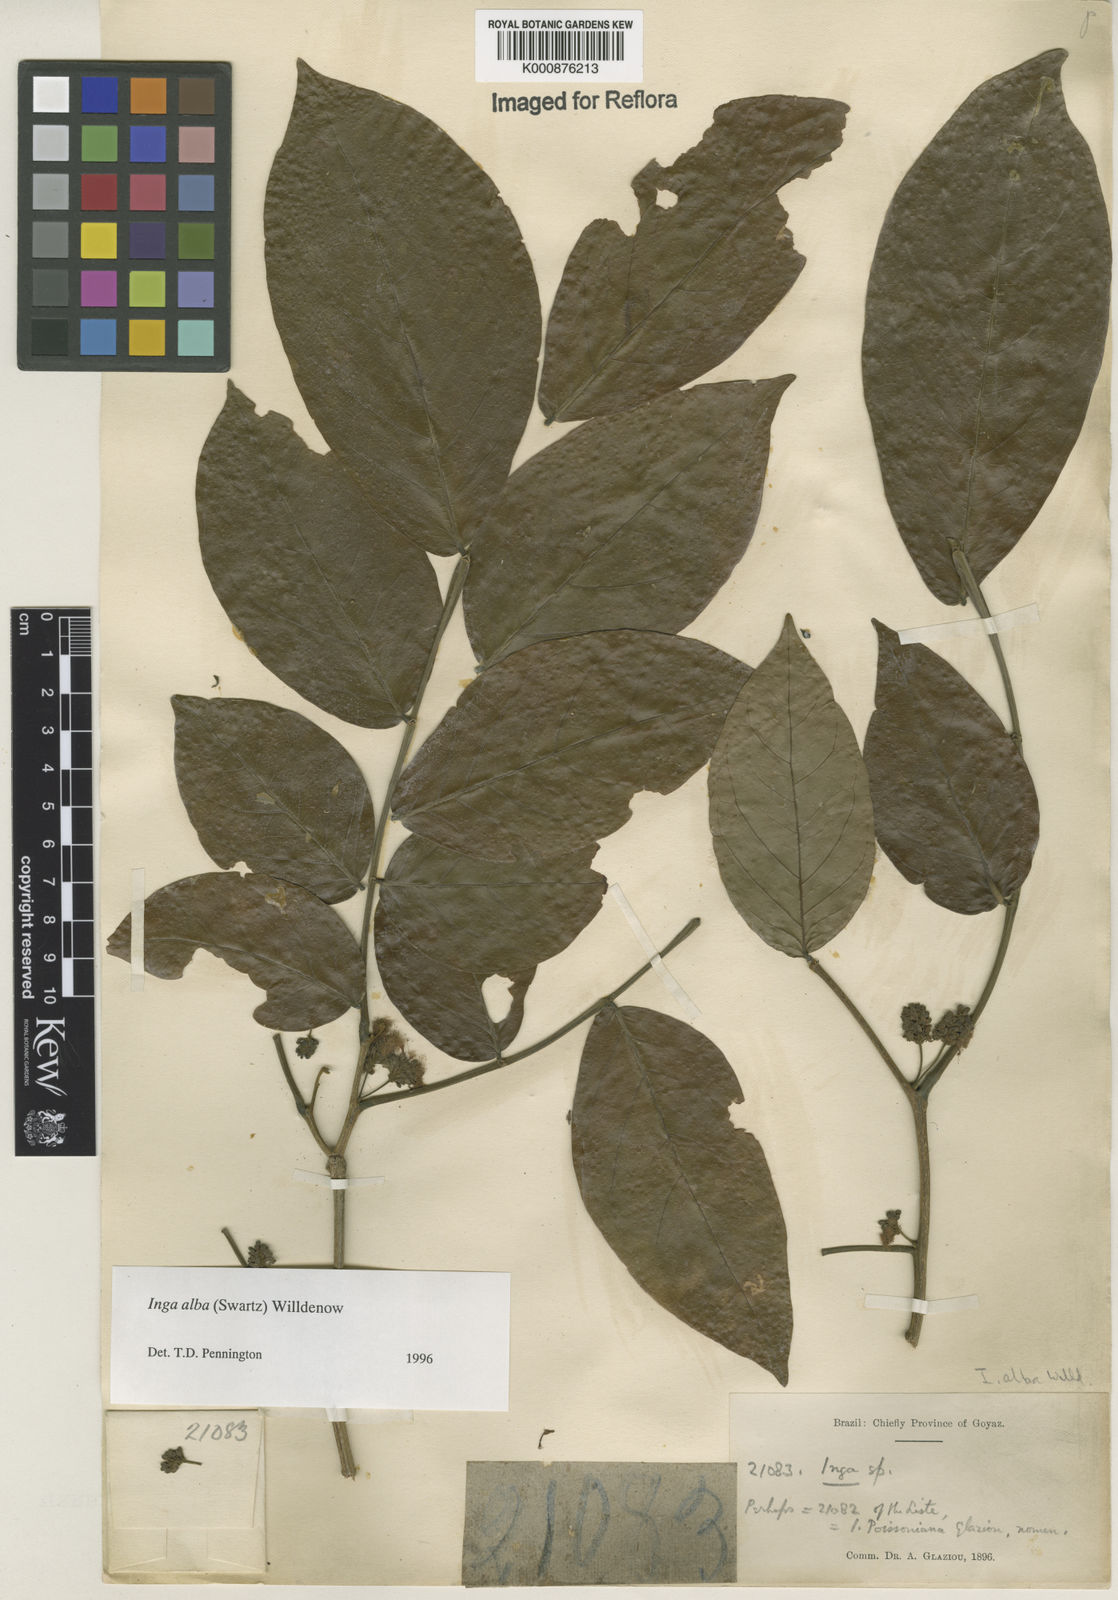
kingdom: Plantae
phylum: Tracheophyta
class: Magnoliopsida
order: Fabales
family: Fabaceae
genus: Inga
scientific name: Inga alba
